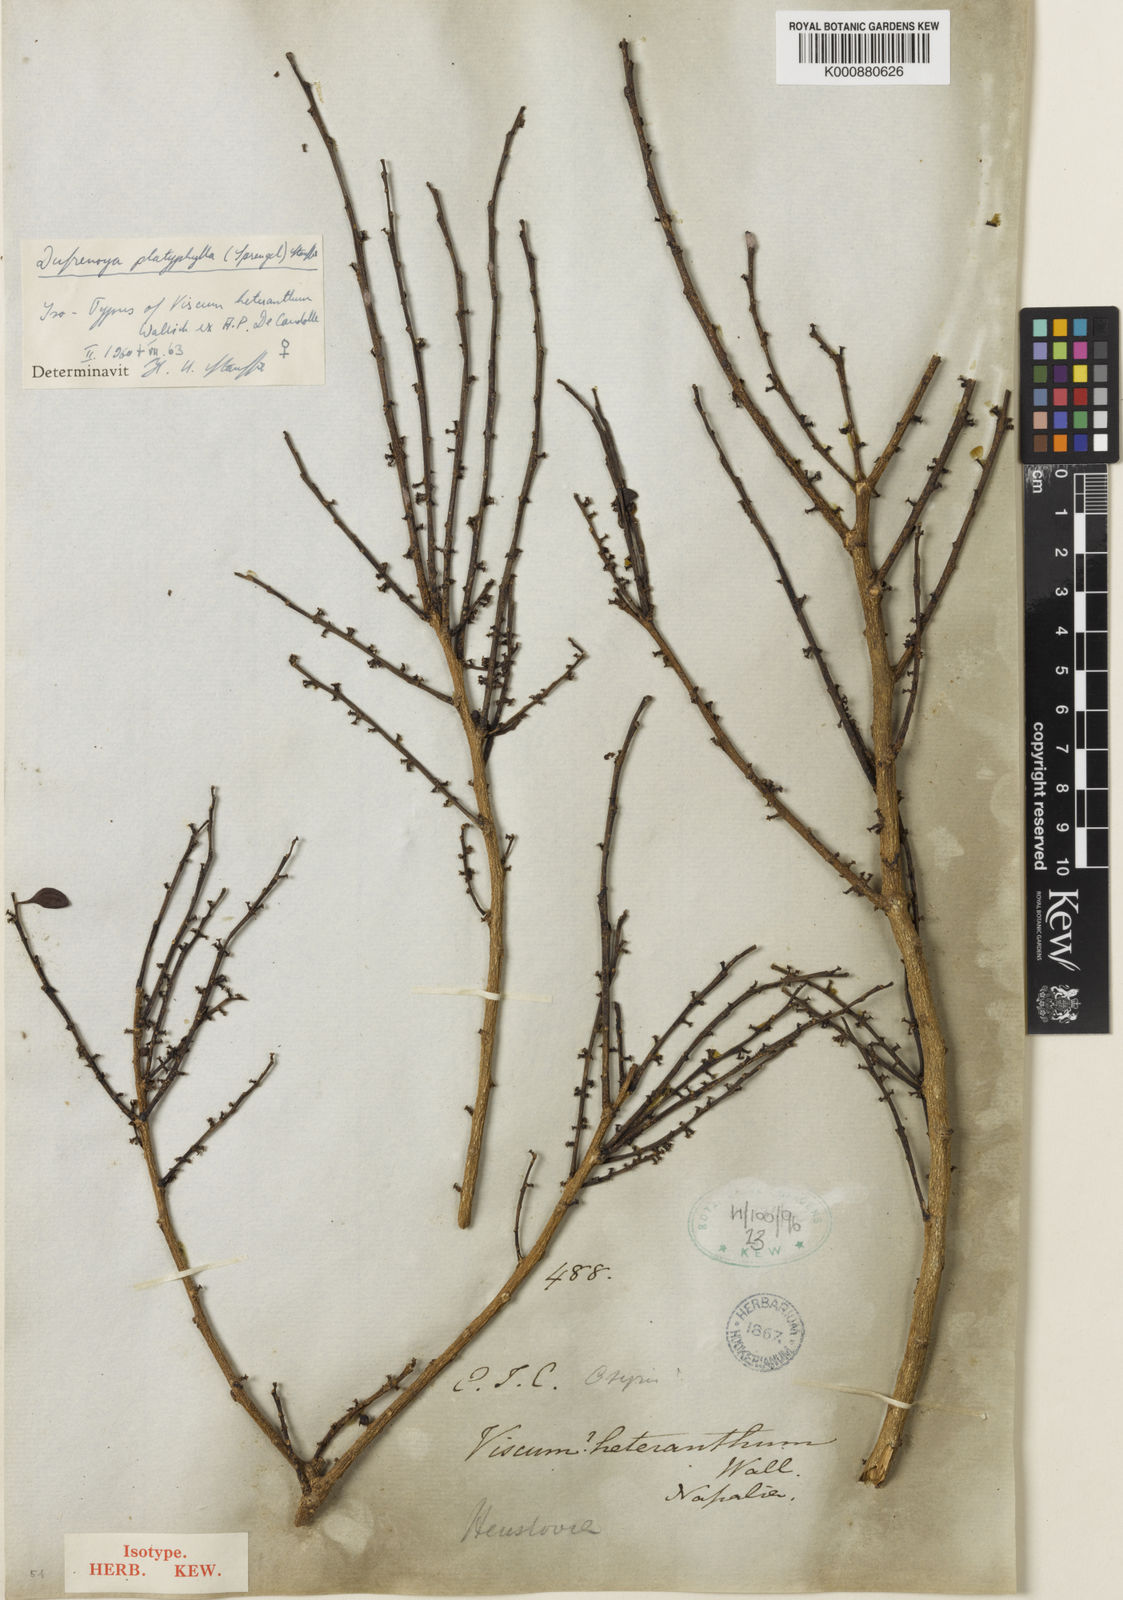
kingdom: Plantae
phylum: Tracheophyta
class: Magnoliopsida
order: Santalales
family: Amphorogynaceae
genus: Dendrotrophe
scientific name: Dendrotrophe platyphylla
